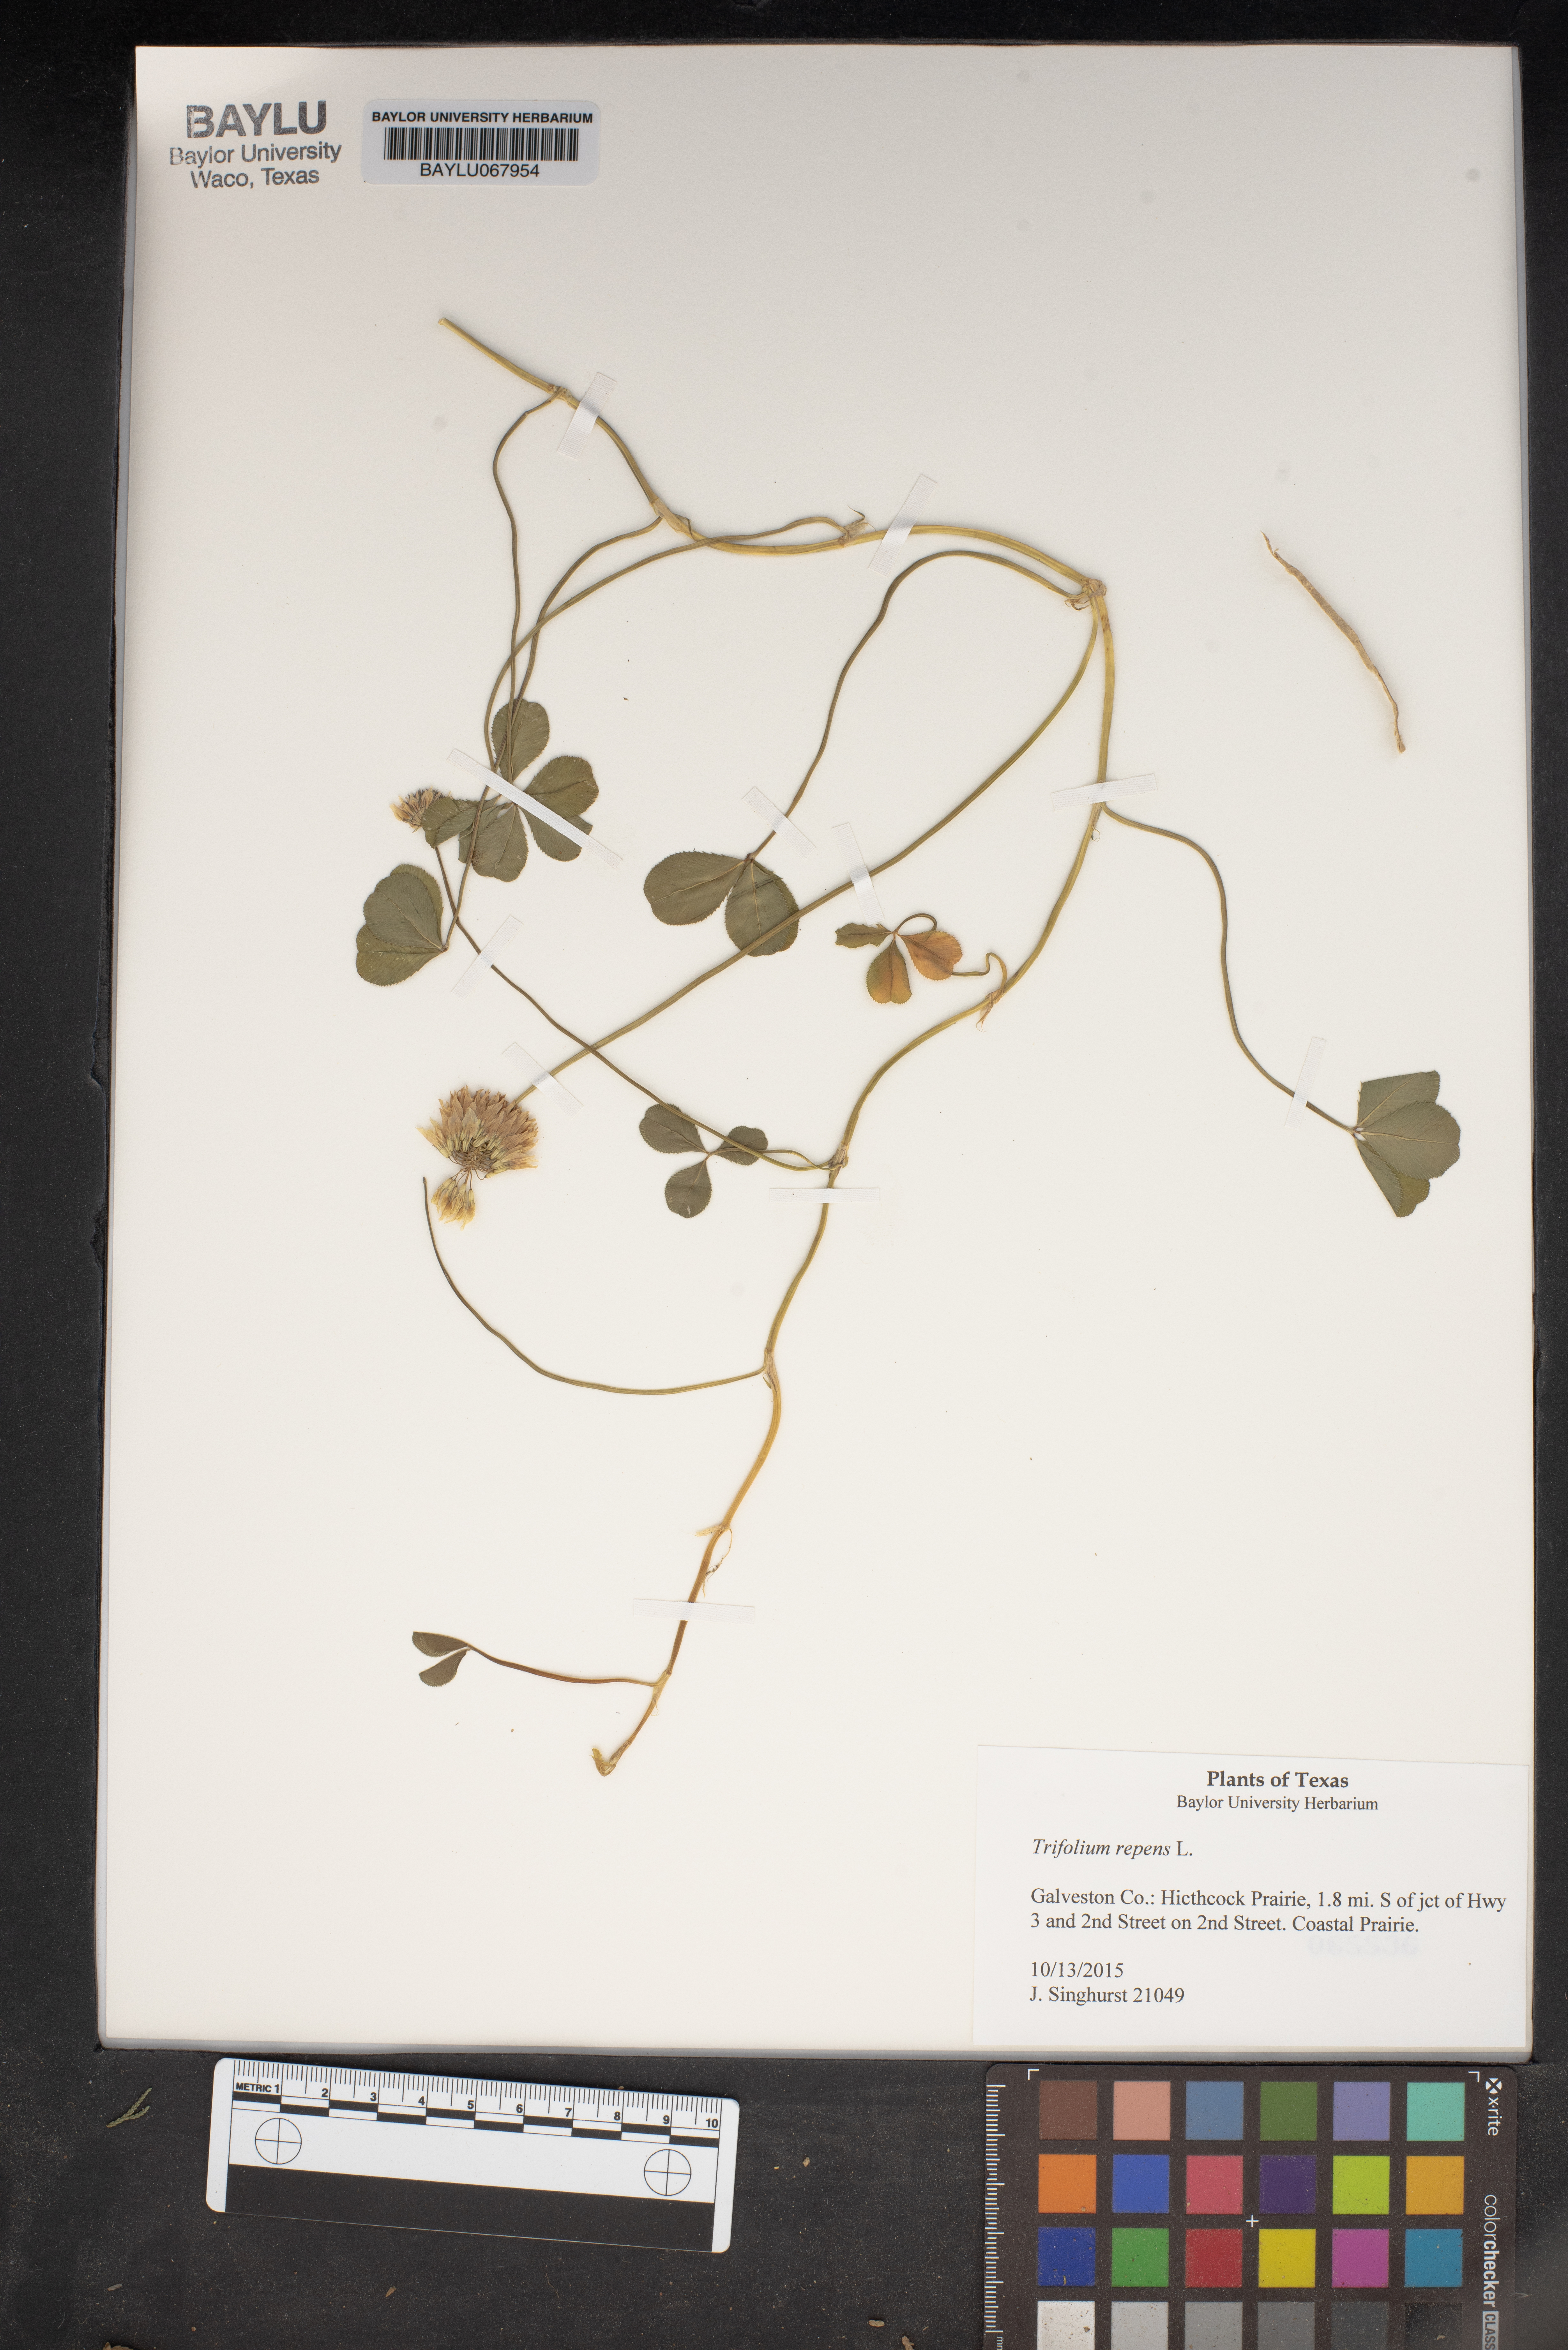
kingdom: Plantae
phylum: Tracheophyta
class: Magnoliopsida
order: Fabales
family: Fabaceae
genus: Trifolium
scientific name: Trifolium repens
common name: White clover
